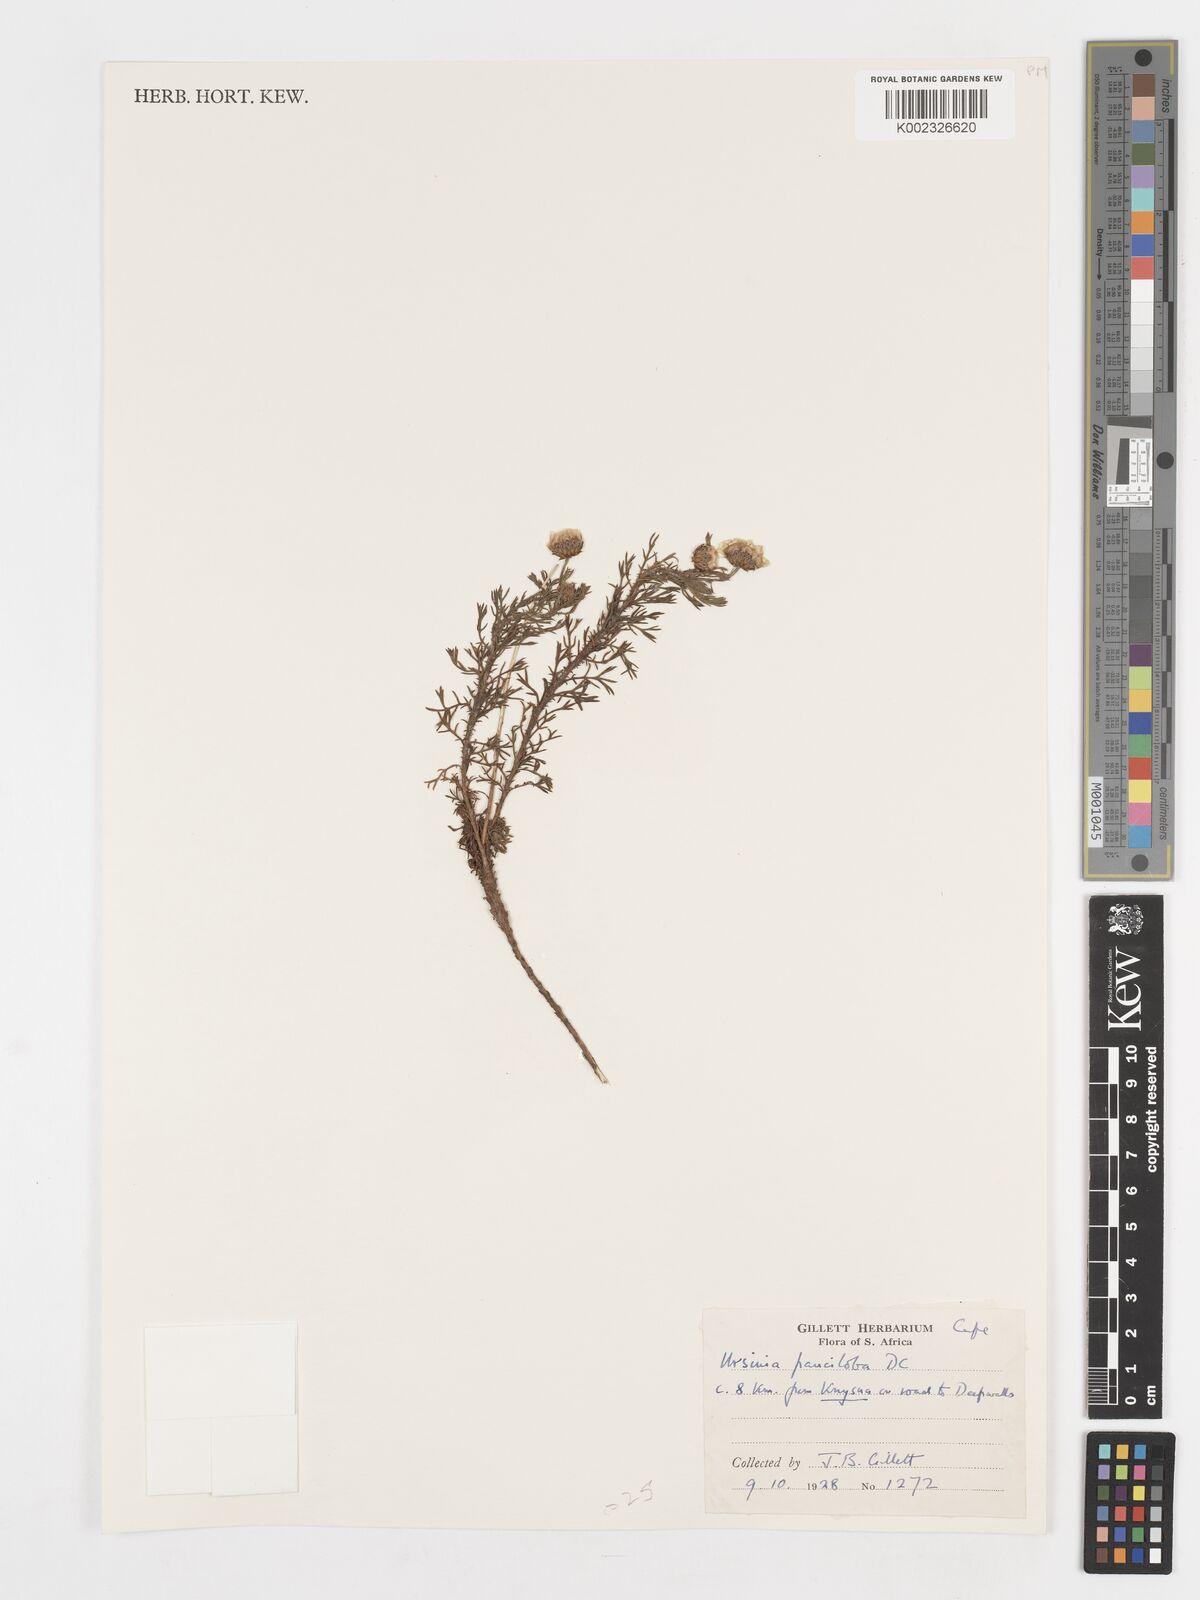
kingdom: Plantae
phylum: Tracheophyta
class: Magnoliopsida
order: Asterales
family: Asteraceae
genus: Ursinia
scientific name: Ursinia punctata
